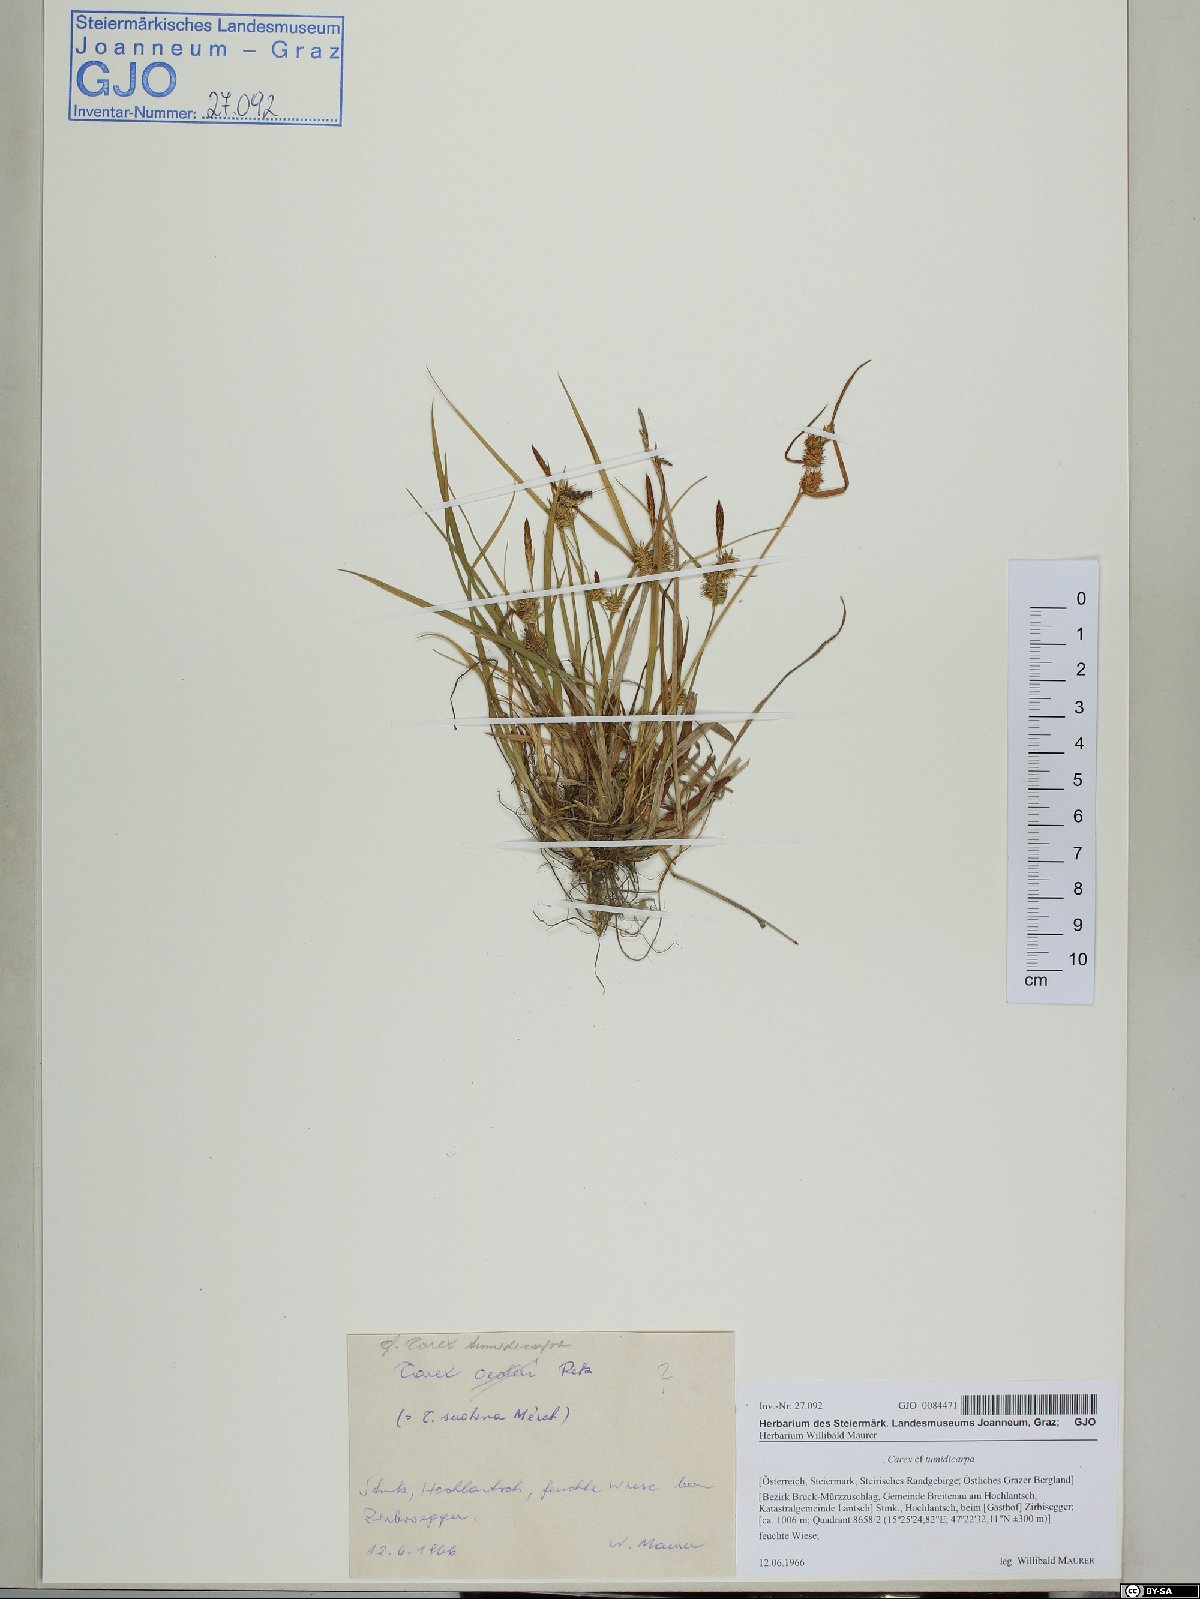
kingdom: Plantae
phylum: Tracheophyta
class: Liliopsida
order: Poales
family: Cyperaceae
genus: Carex
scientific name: Carex demissa
